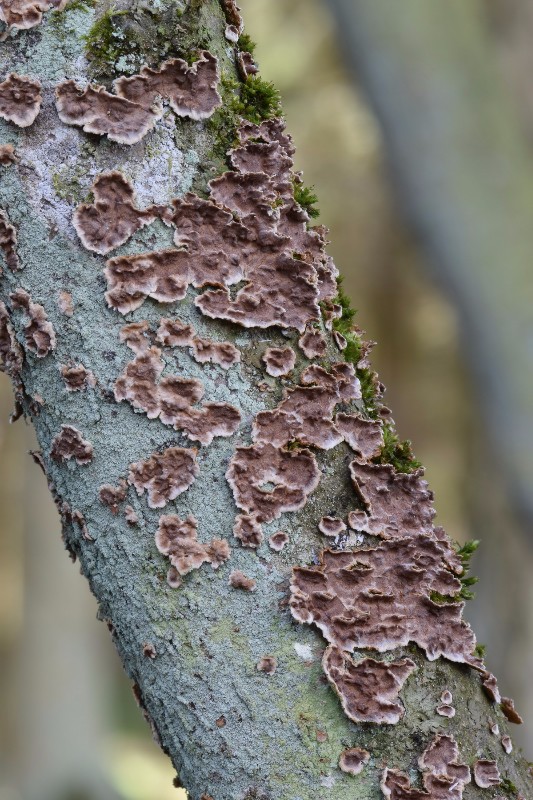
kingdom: Fungi
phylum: Basidiomycota
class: Agaricomycetes
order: Hymenochaetales
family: Hymenochaetaceae
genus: Hydnoporia
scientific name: Hydnoporia tabacina
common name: tobaksbrun ruslædersvamp
